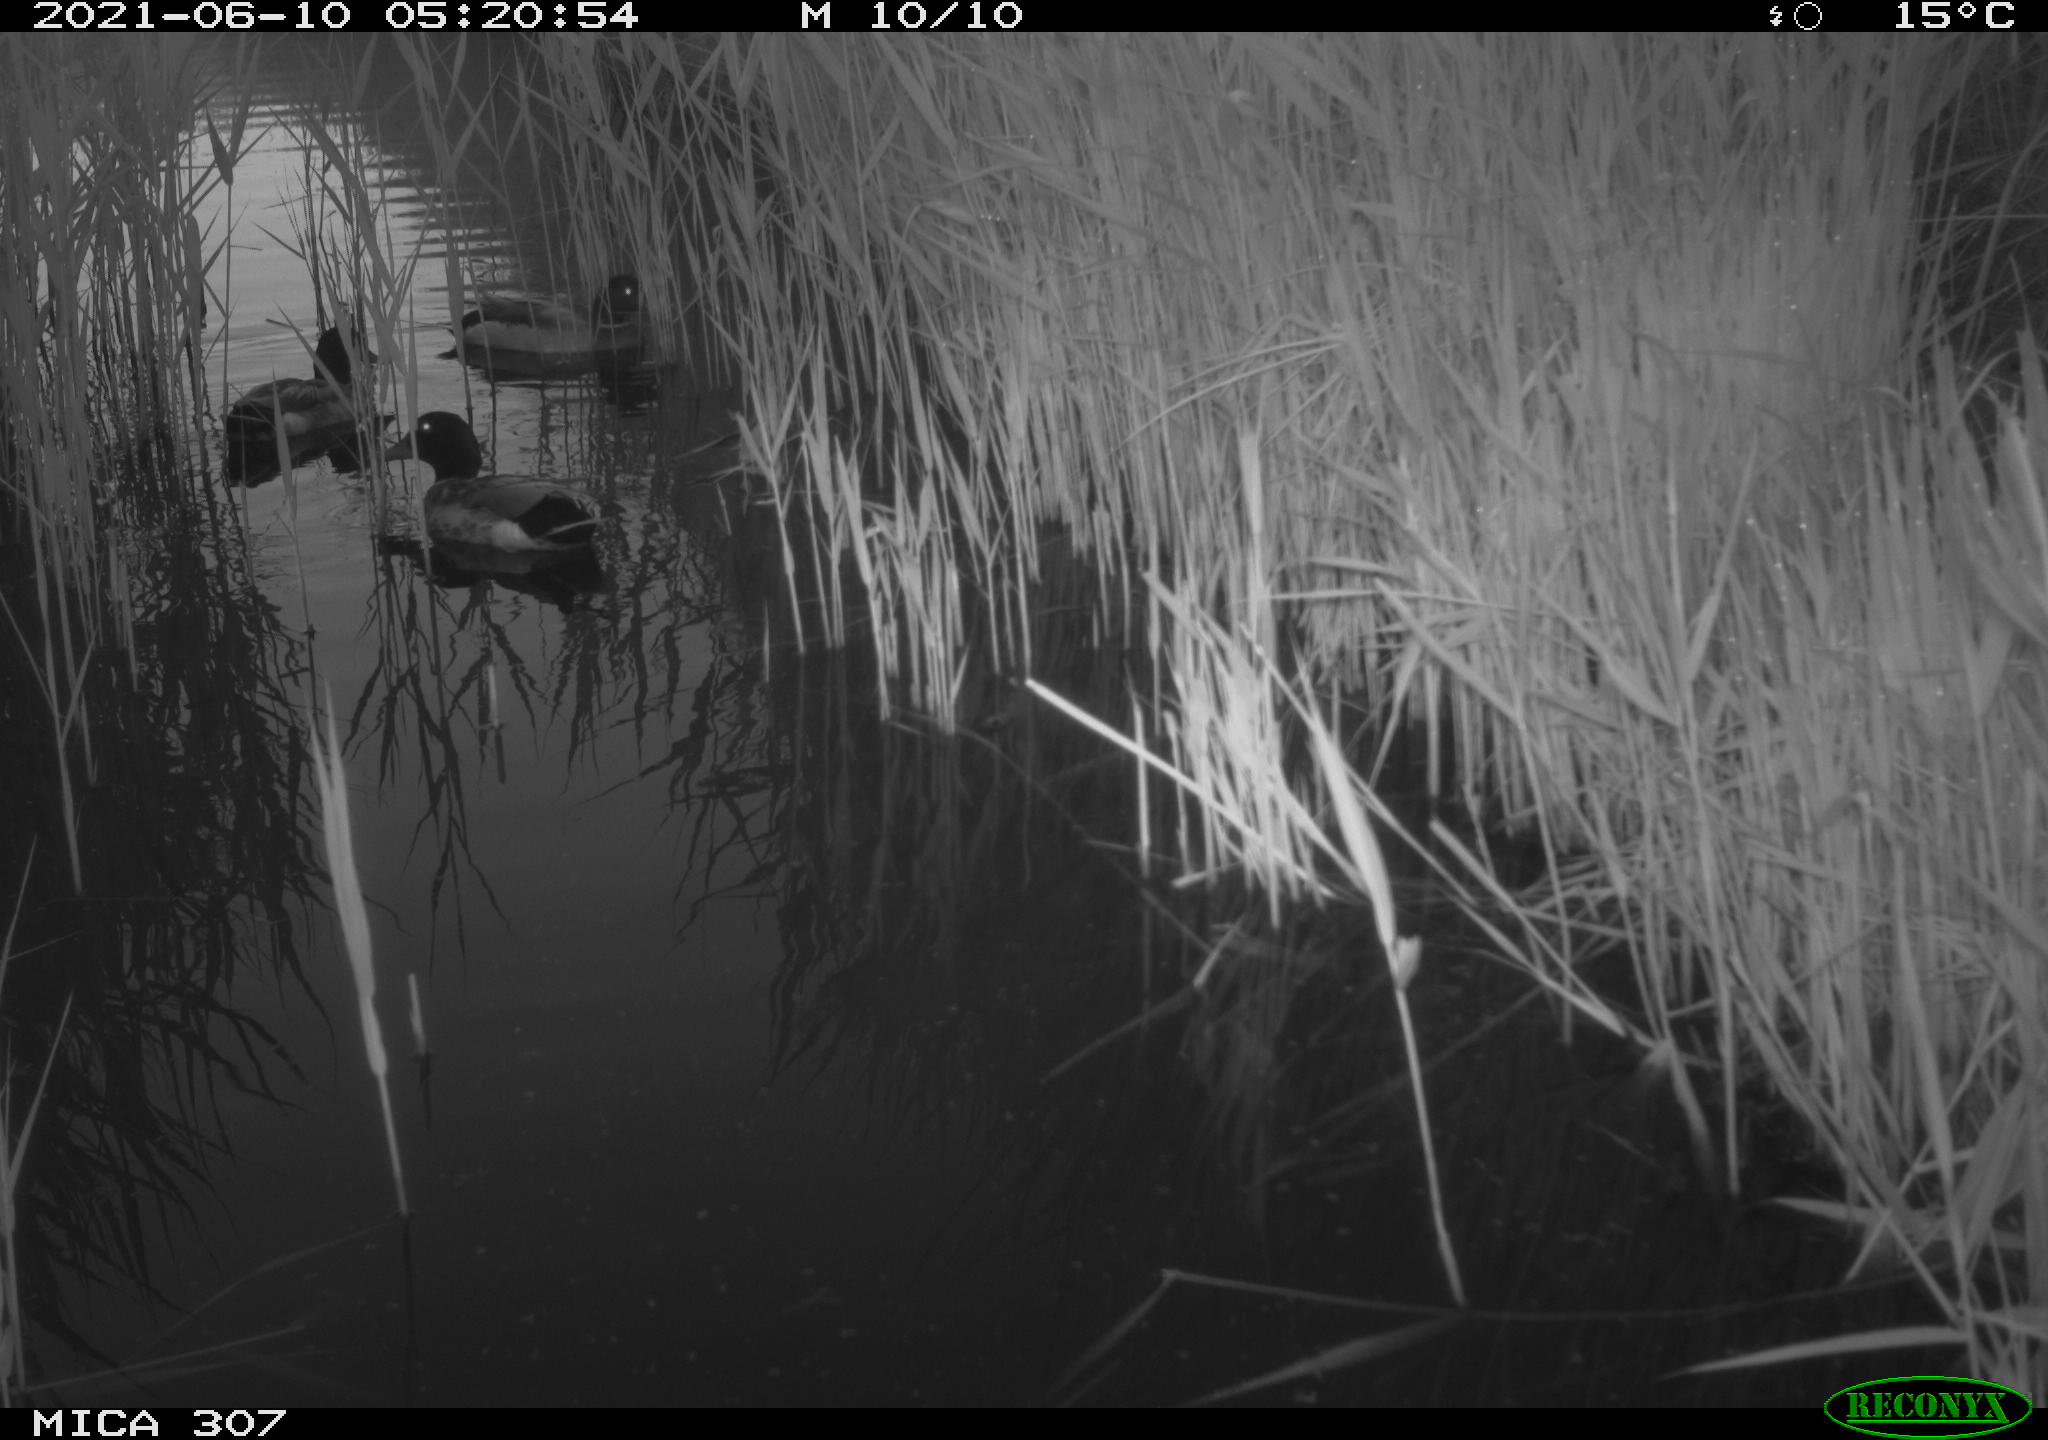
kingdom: Animalia
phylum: Chordata
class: Aves
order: Gruiformes
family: Rallidae
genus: Gallinula
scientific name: Gallinula chloropus
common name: Common moorhen
